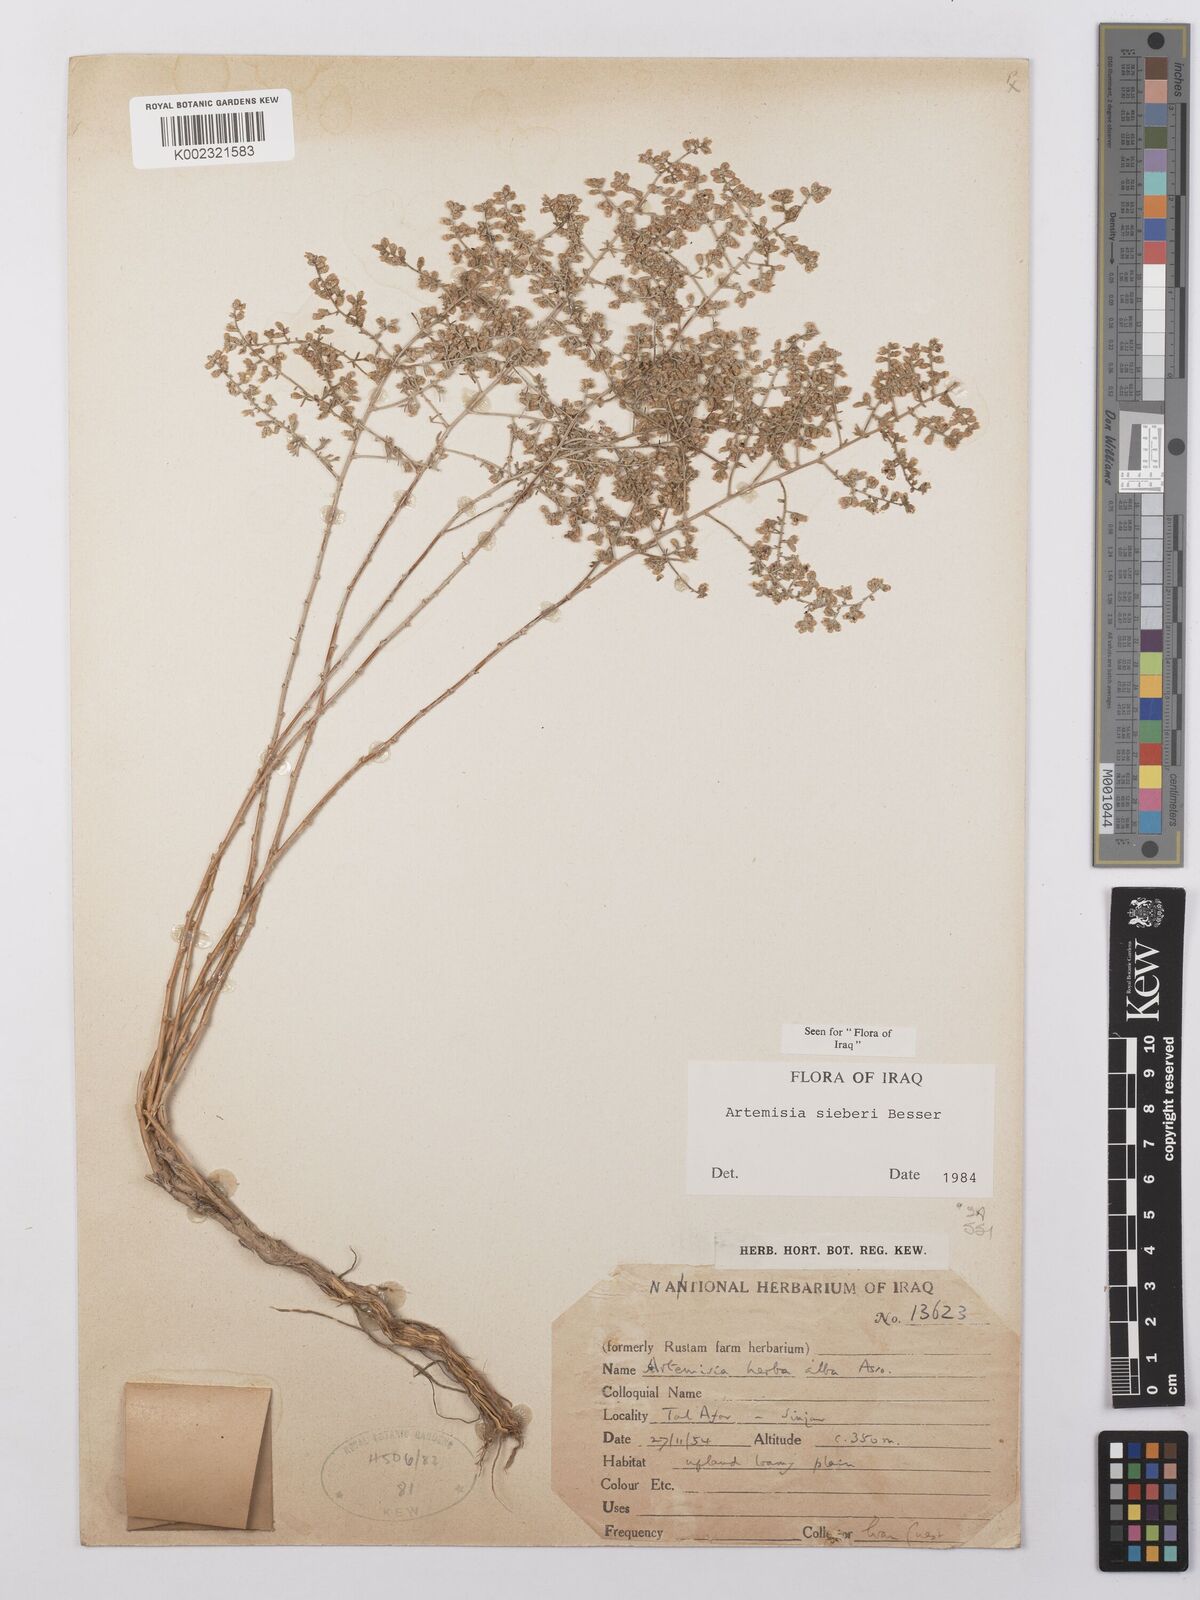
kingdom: Plantae
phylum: Tracheophyta
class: Magnoliopsida
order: Asterales
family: Asteraceae
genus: Artemisia
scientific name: Artemisia sieberi
